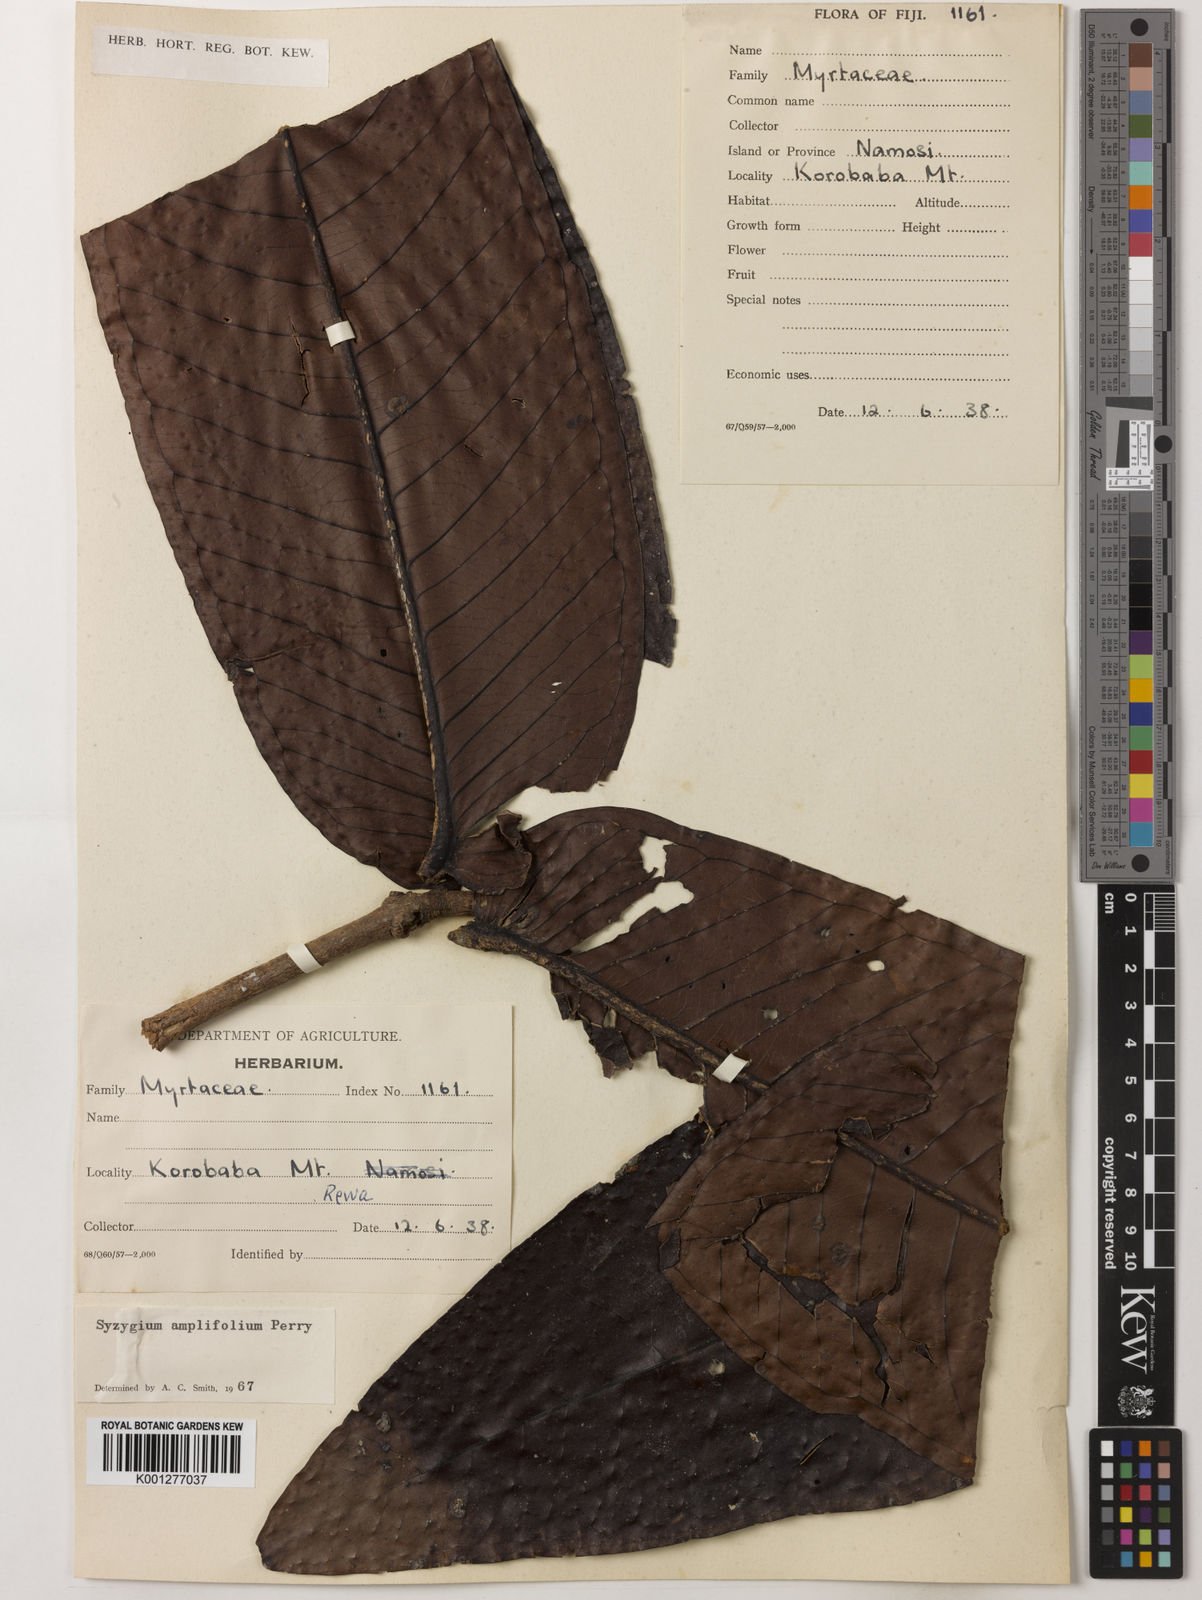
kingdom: Plantae
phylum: Tracheophyta
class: Magnoliopsida
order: Myrtales
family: Myrtaceae
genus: Syzygium
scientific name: Syzygium amplifolium
